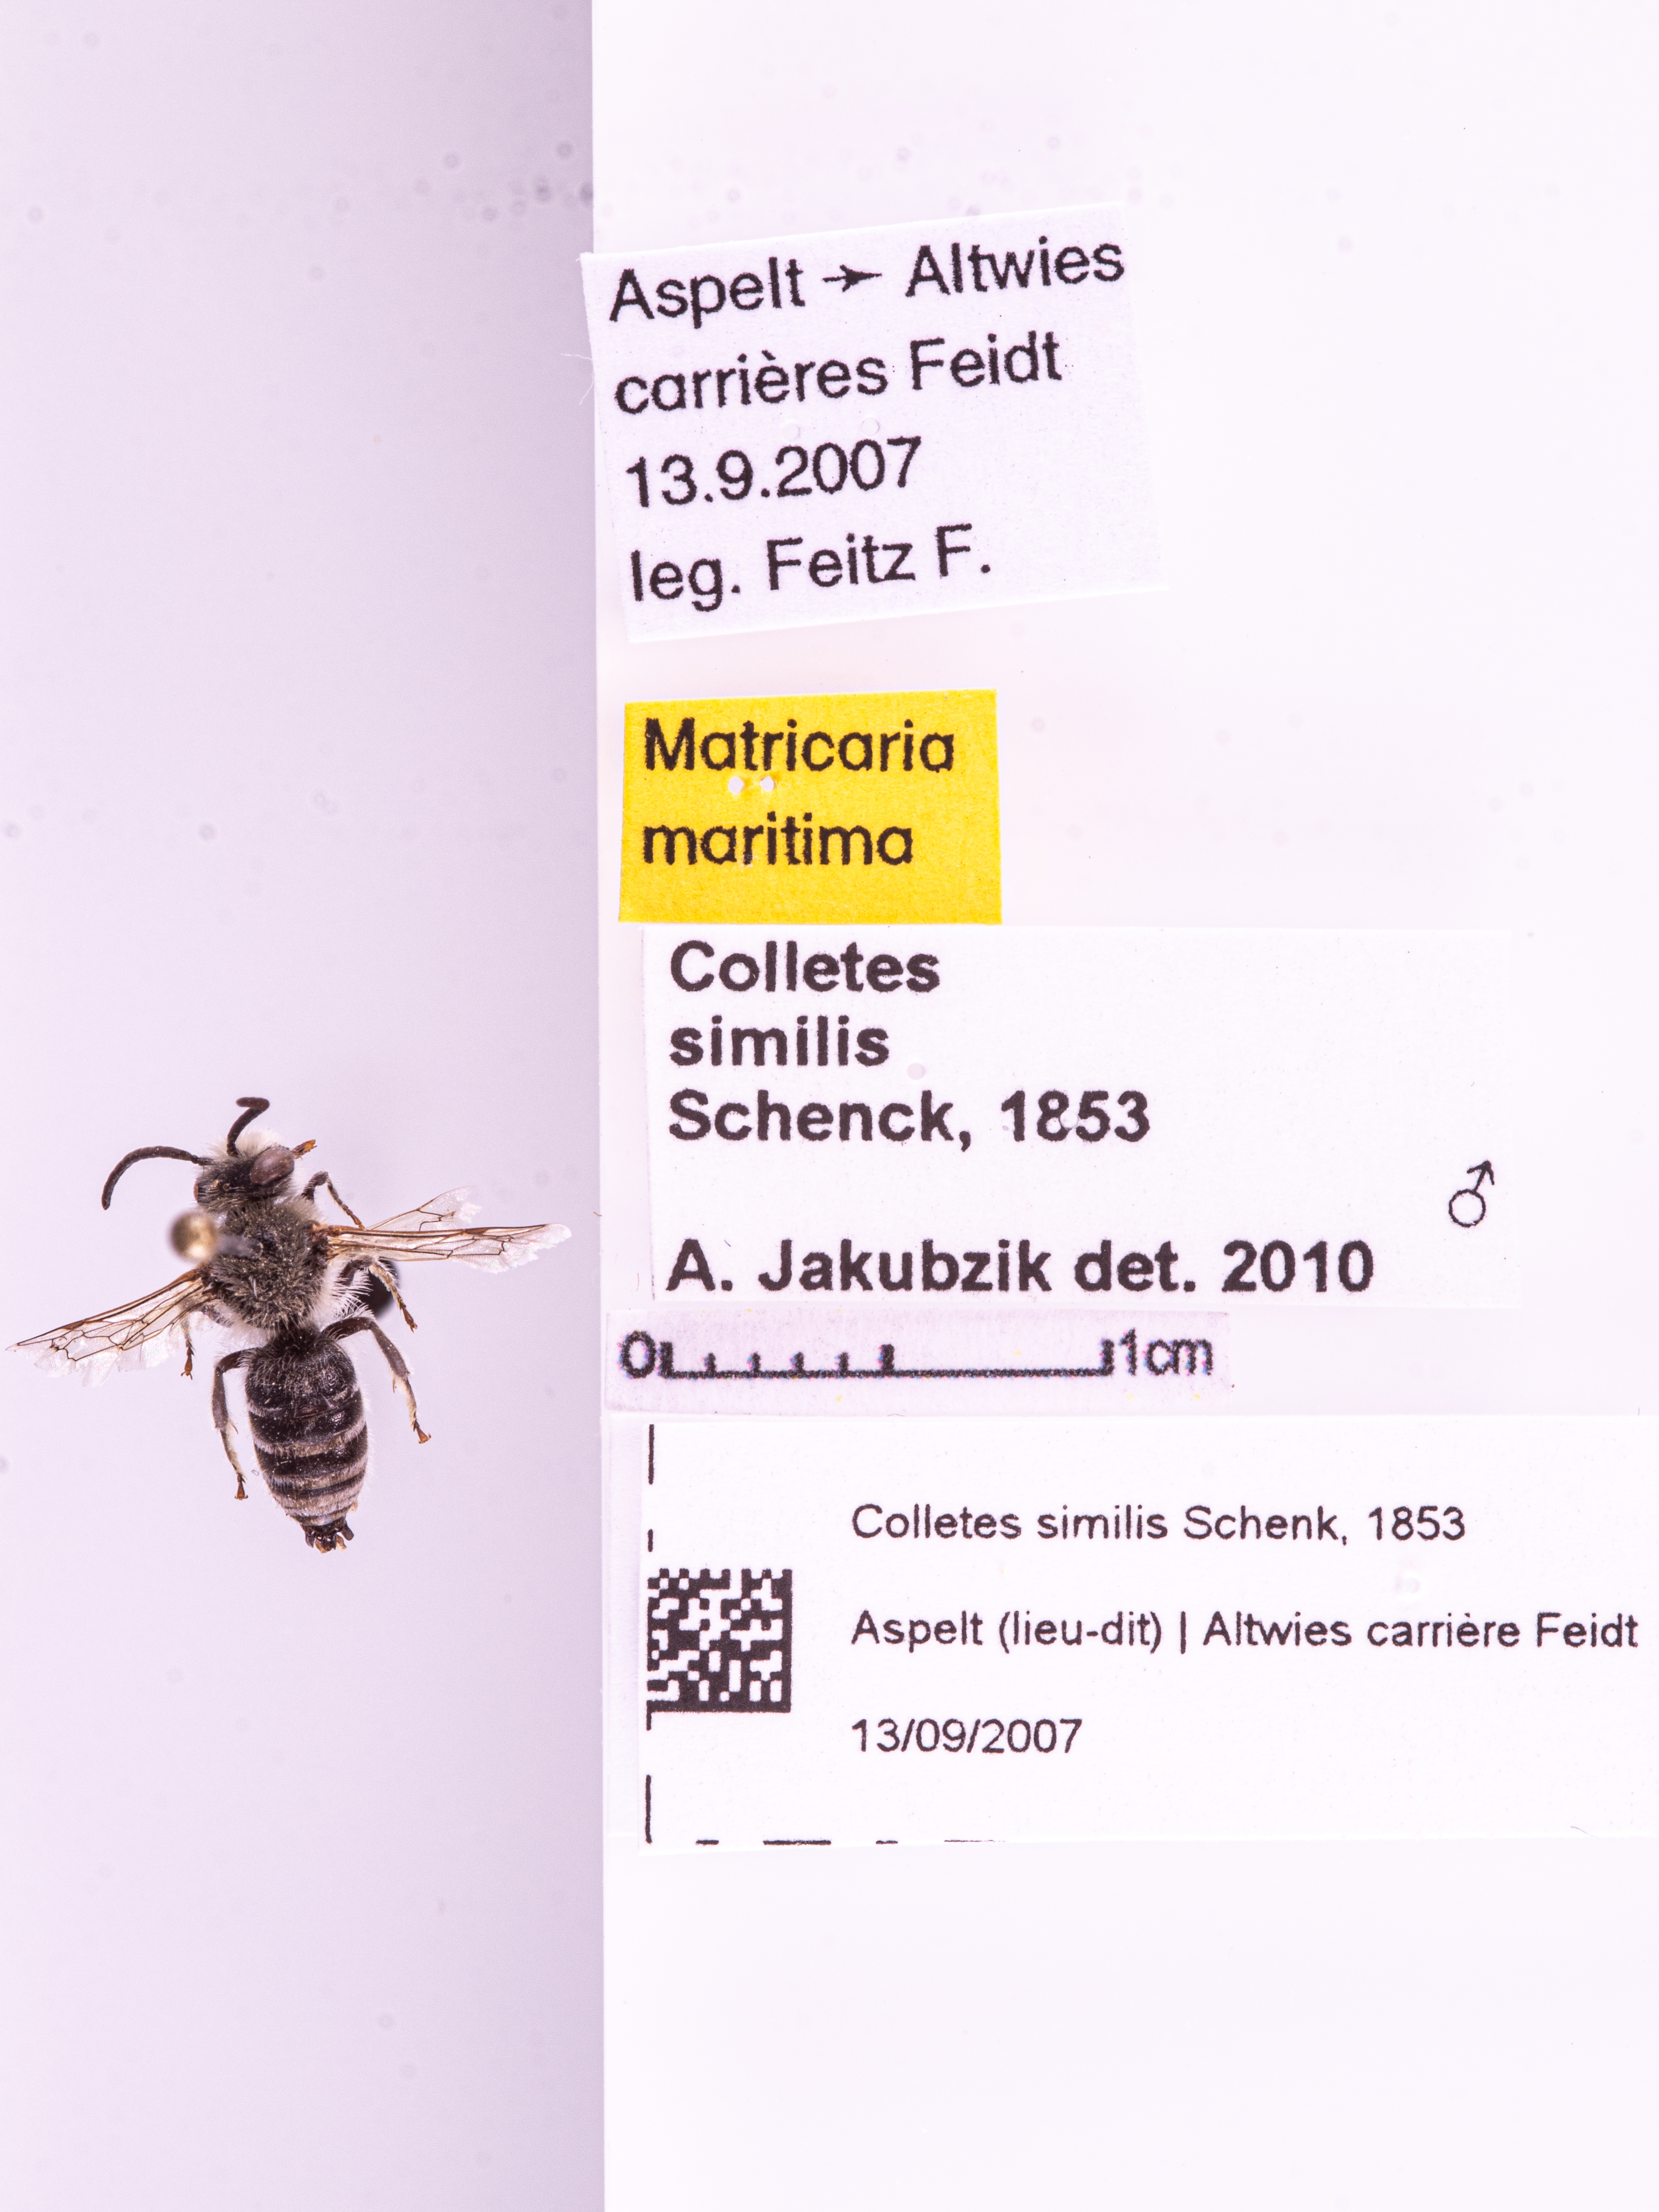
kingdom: Animalia
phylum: Arthropoda
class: Insecta
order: Hymenoptera
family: Colletidae
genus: Colletes
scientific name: Colletes similis
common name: Bare-saddled colletes
